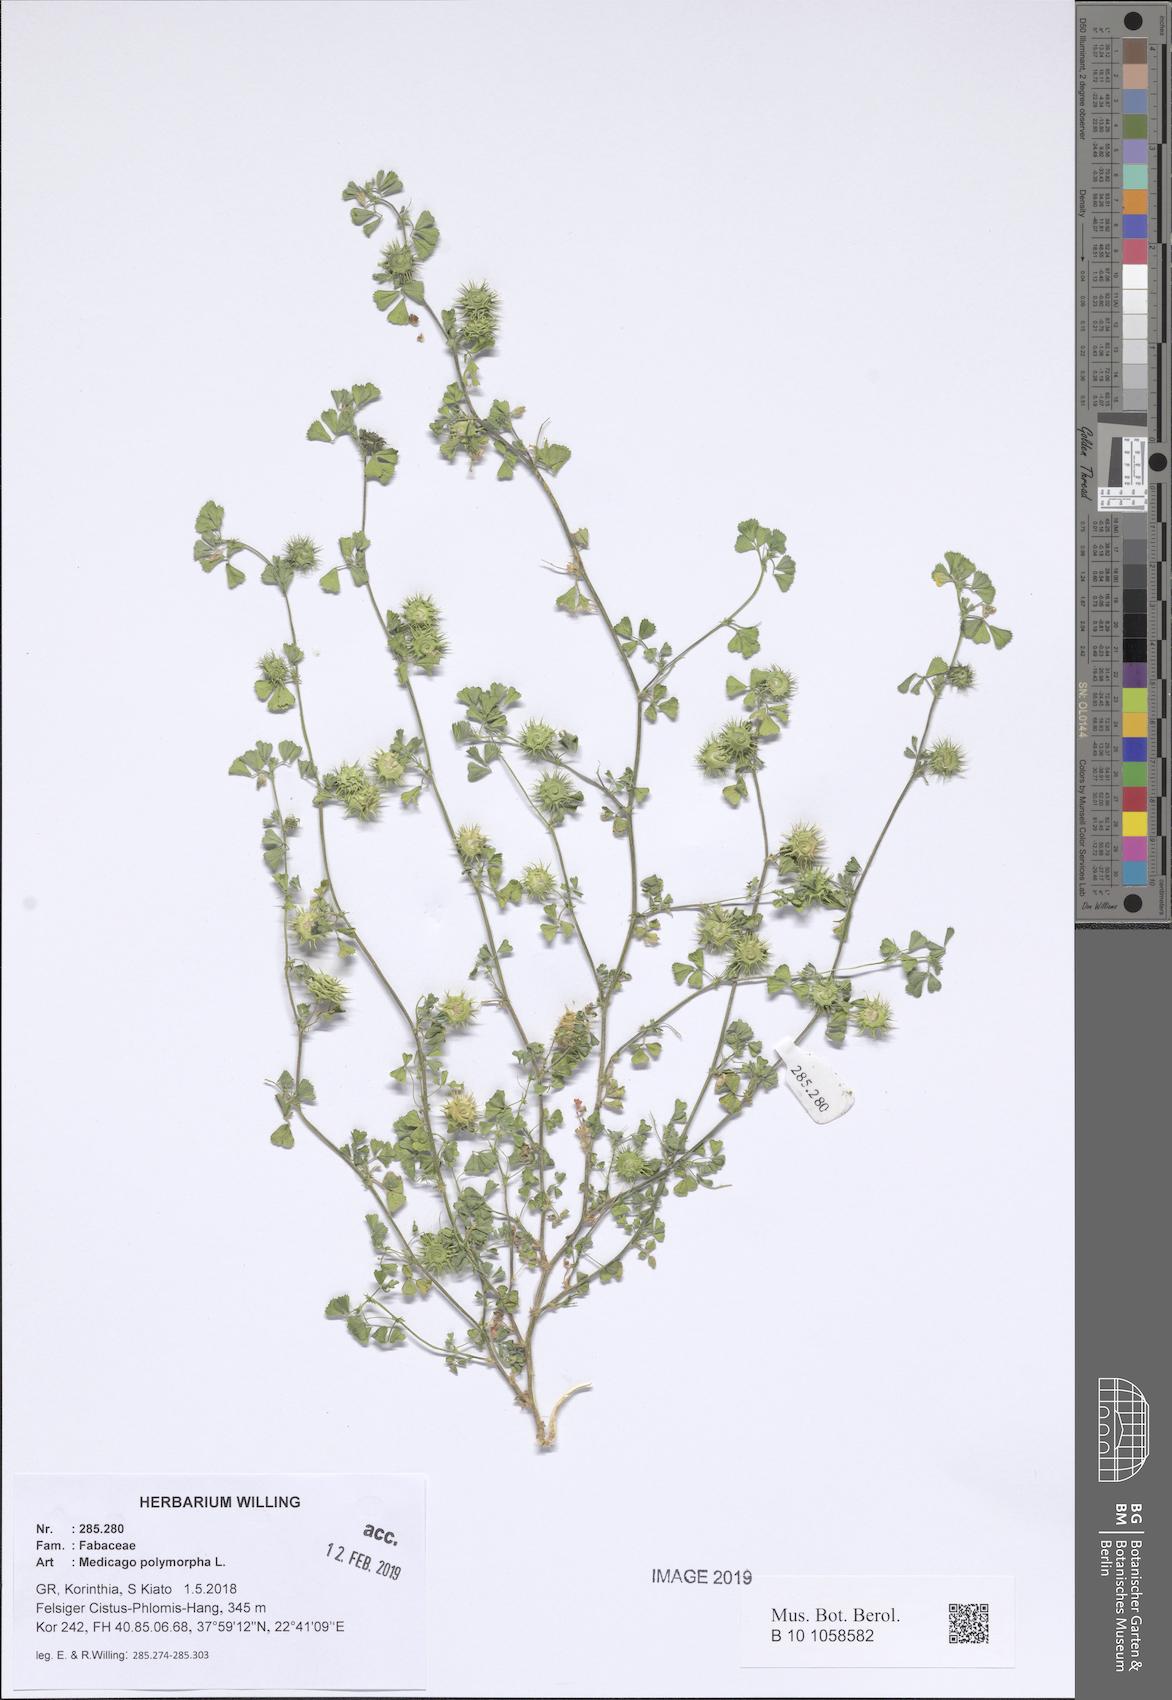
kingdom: Plantae
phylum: Tracheophyta
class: Magnoliopsida
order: Fabales
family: Fabaceae
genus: Medicago
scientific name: Medicago polymorpha
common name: Burclover
